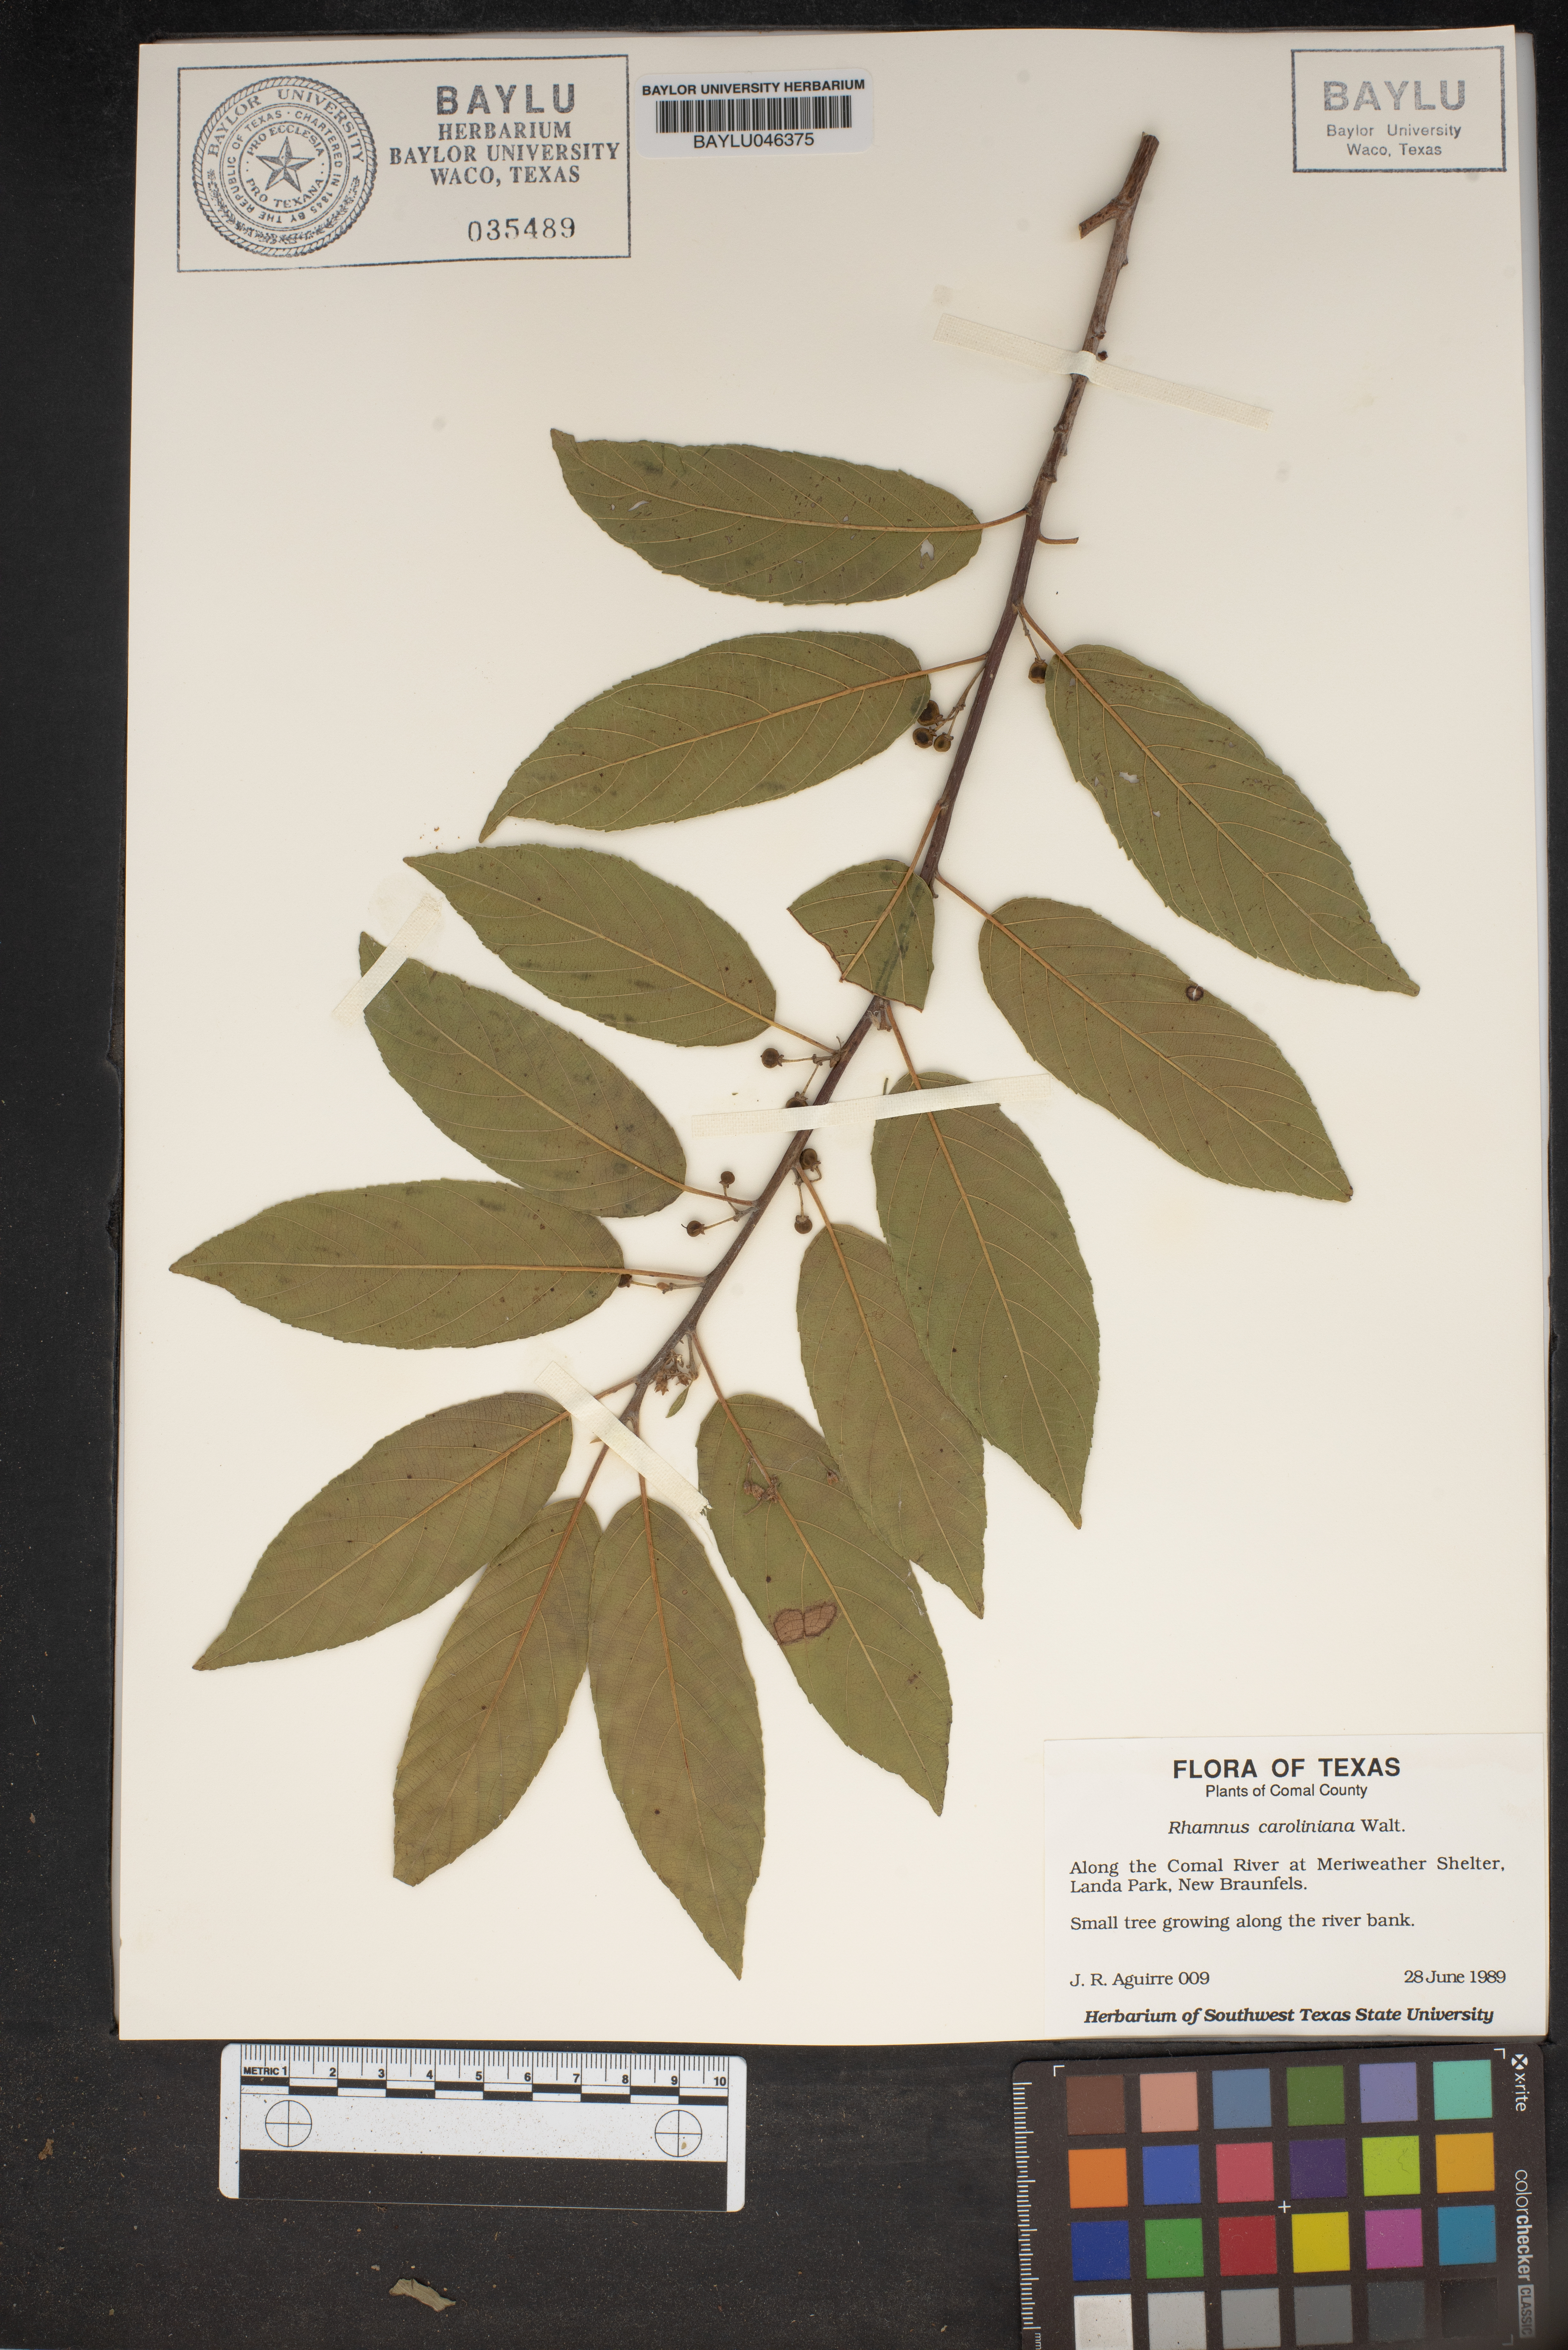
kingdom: Plantae
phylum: Tracheophyta
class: Magnoliopsida
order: Rosales
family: Rhamnaceae
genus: Frangula
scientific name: Frangula caroliniana
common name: Carolina buckthorn
